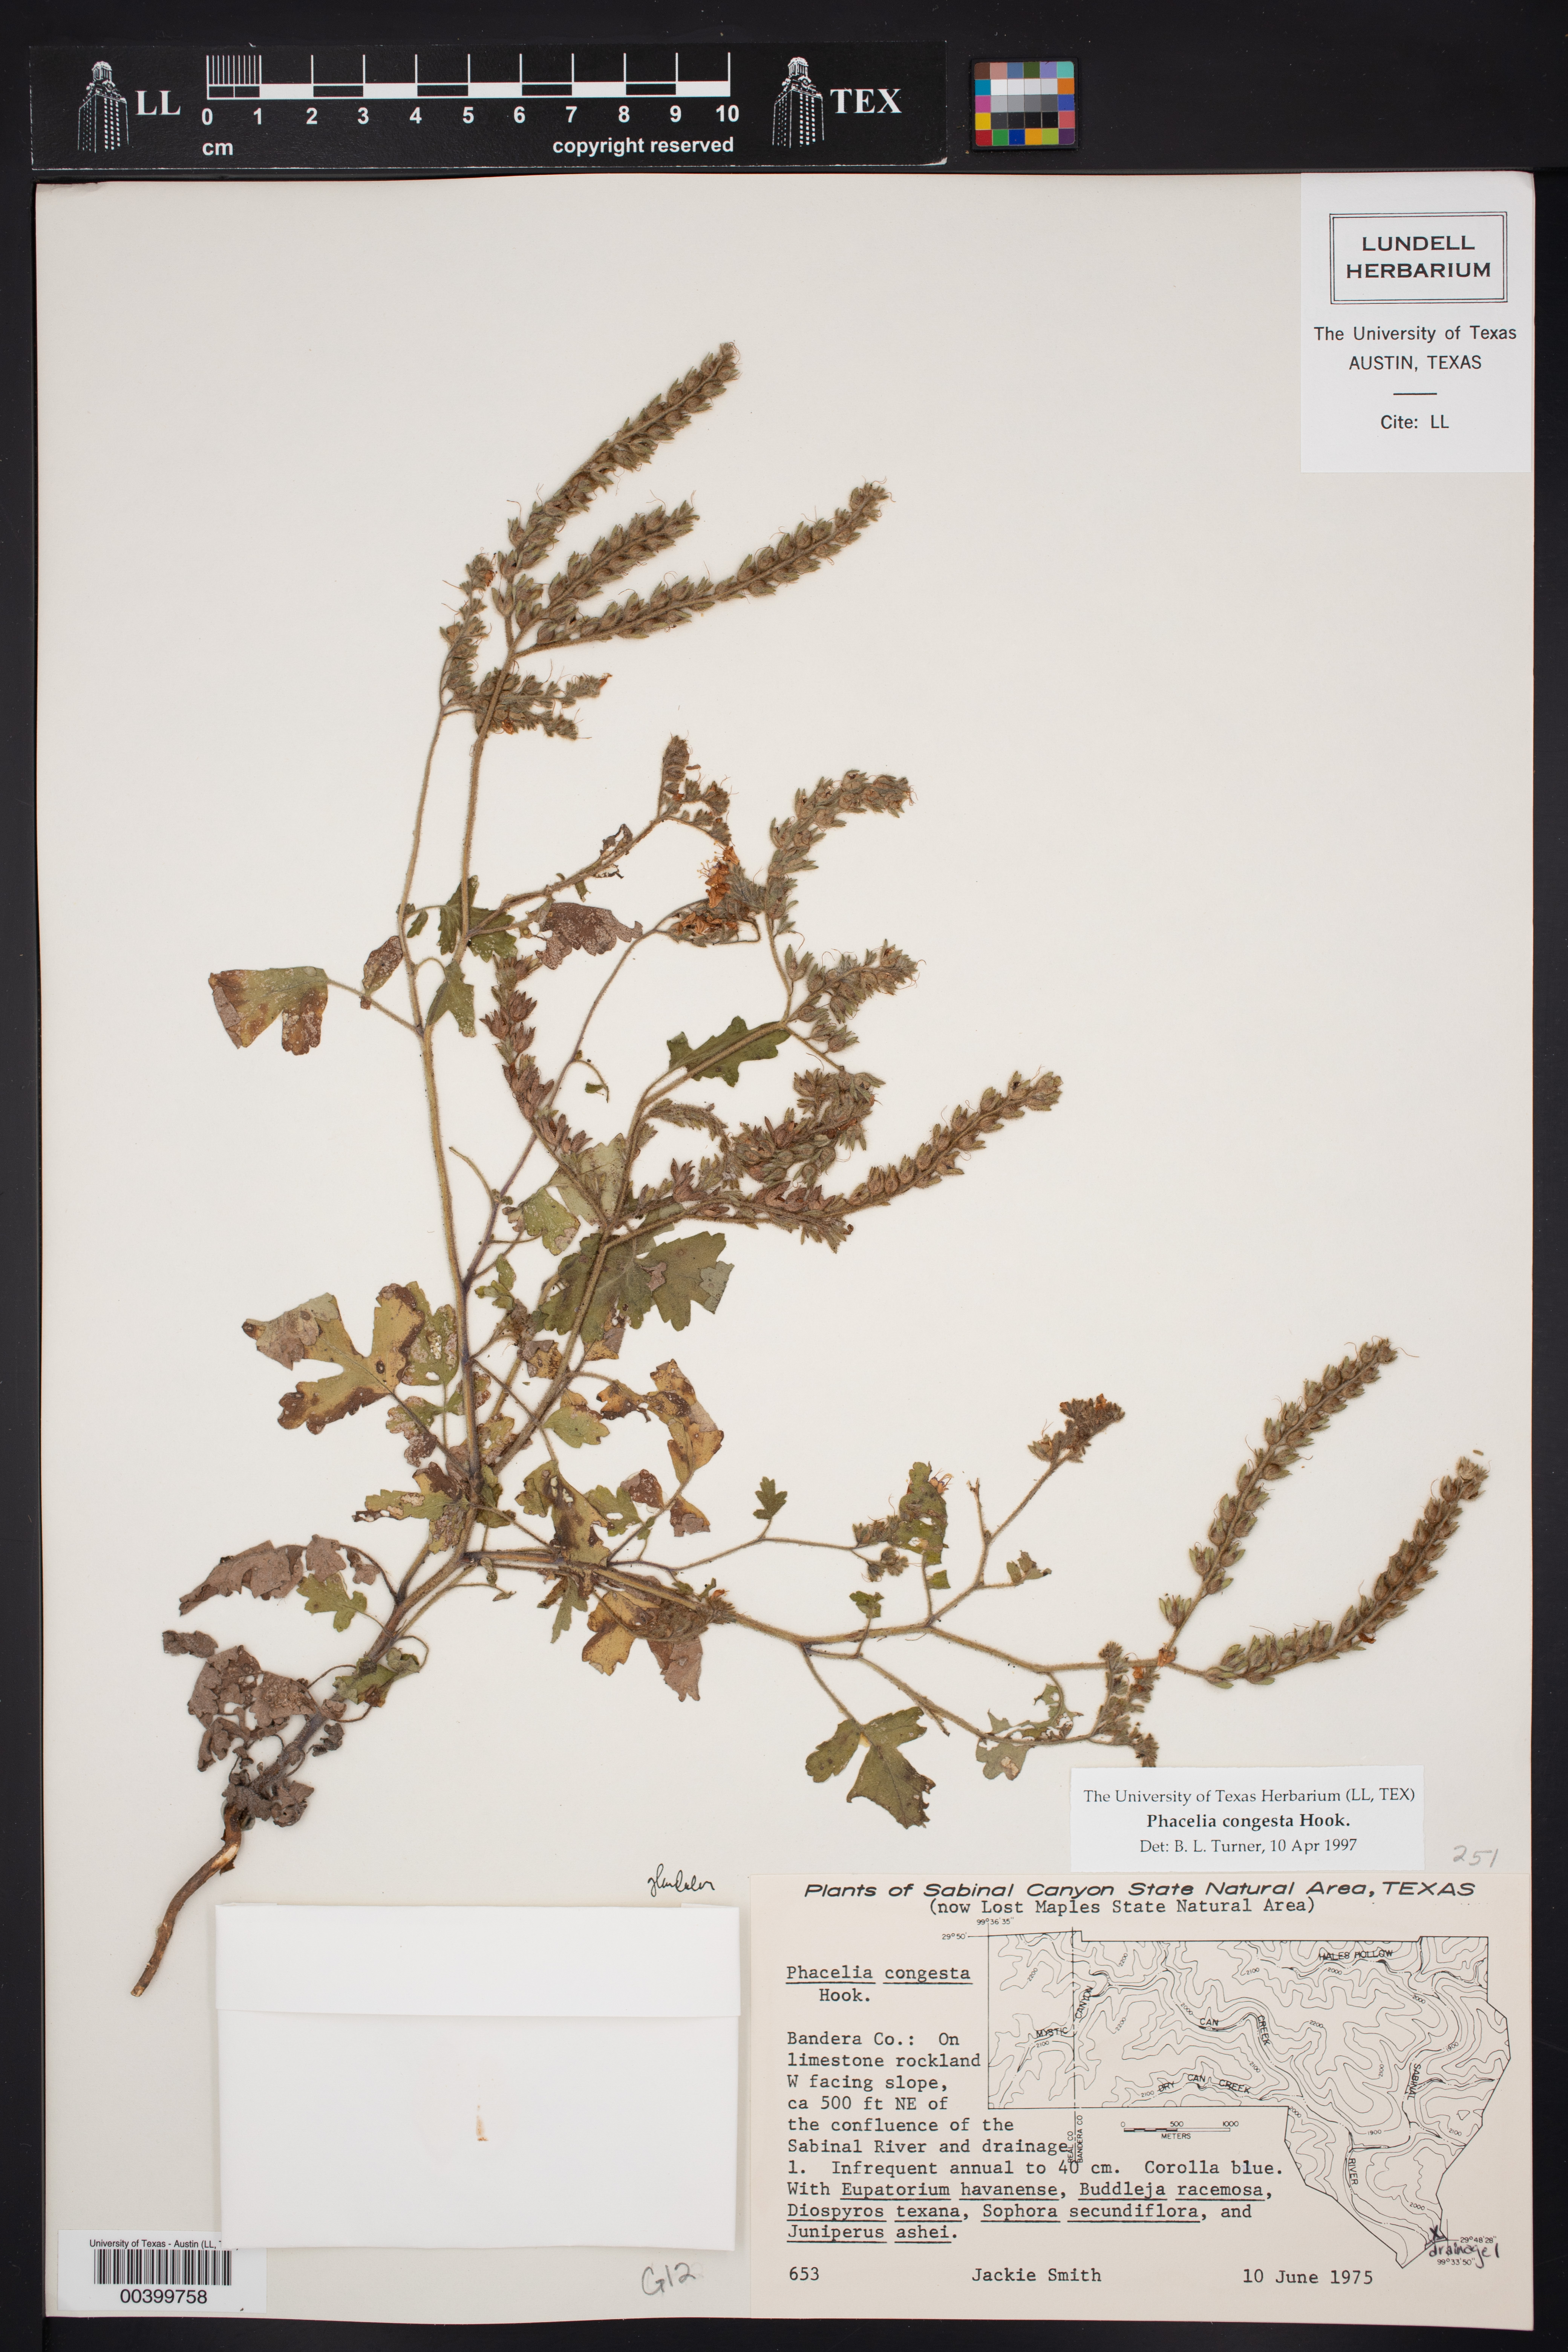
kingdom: Plantae
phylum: Tracheophyta
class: Magnoliopsida
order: Boraginales
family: Hydrophyllaceae
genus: Phacelia
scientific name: Phacelia congesta
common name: Blue curls
